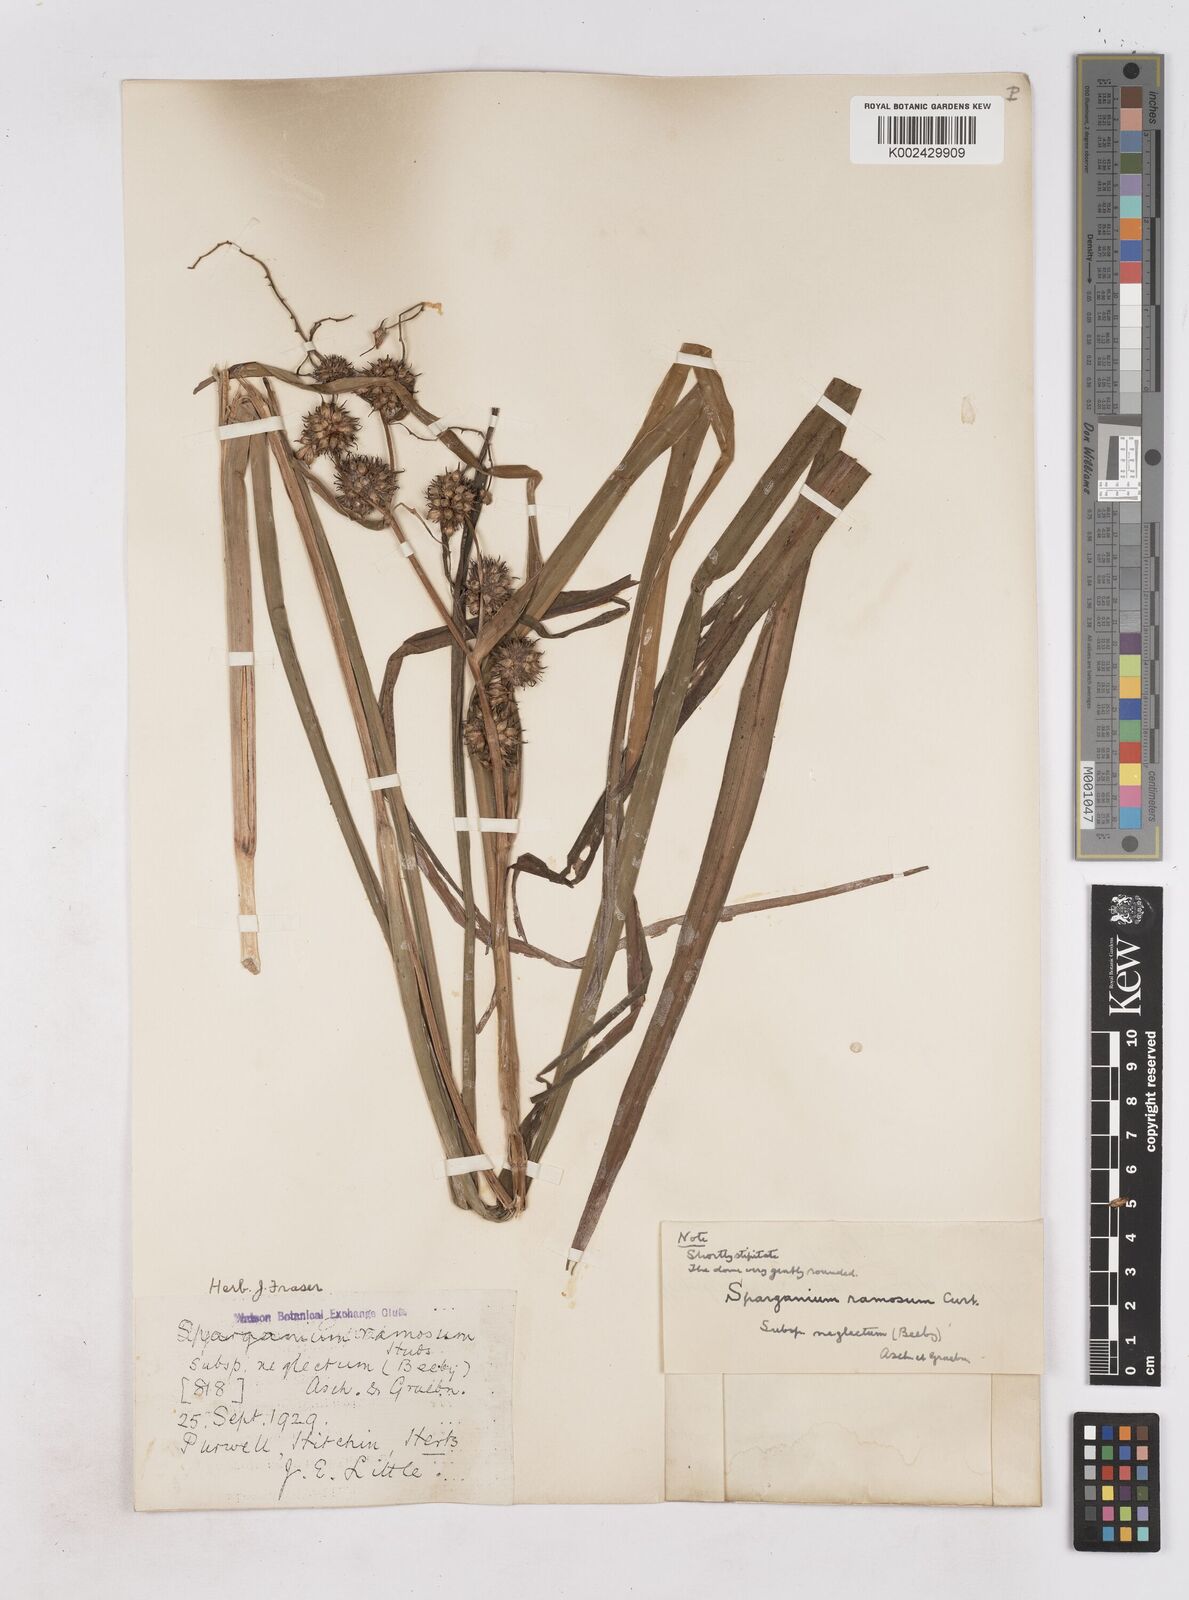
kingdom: Plantae
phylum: Tracheophyta
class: Liliopsida
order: Poales
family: Typhaceae
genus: Sparganium
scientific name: Sparganium erectum
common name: Branched bur-reed
